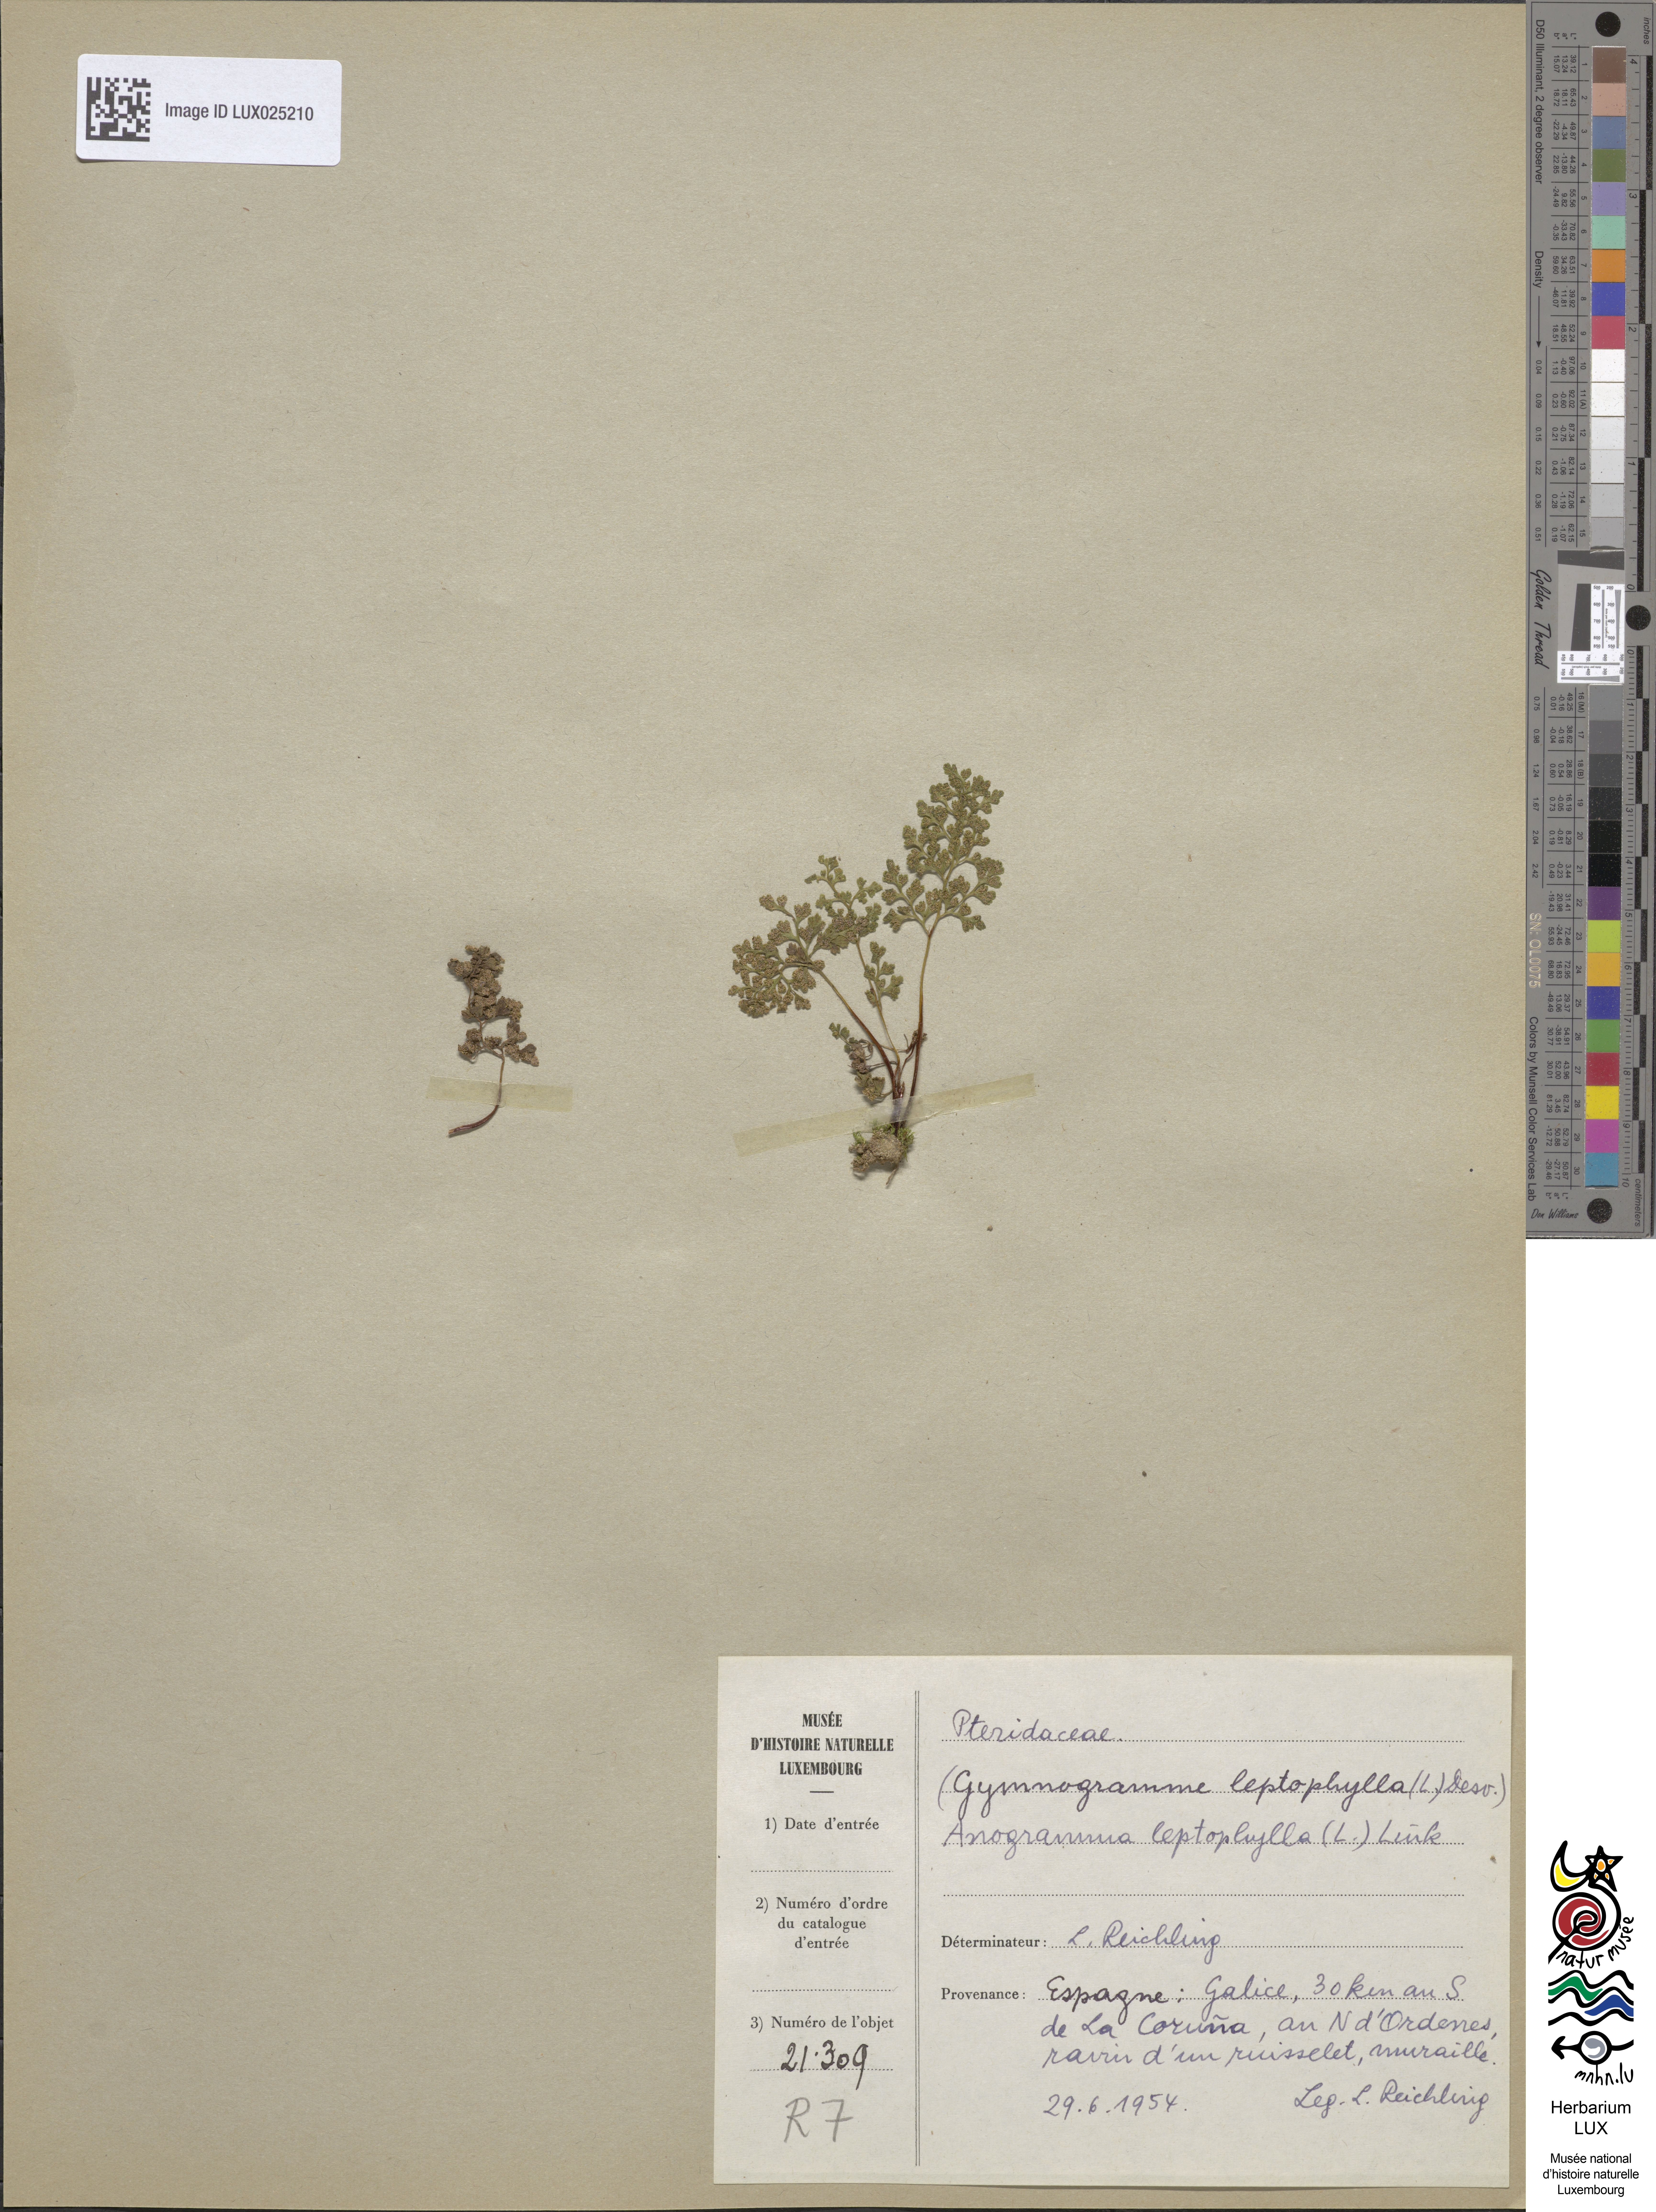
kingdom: Plantae
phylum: Tracheophyta
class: Polypodiopsida
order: Polypodiales
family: Pteridaceae
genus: Anogramma
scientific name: Anogramma leptophylla
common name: Jersey fern
